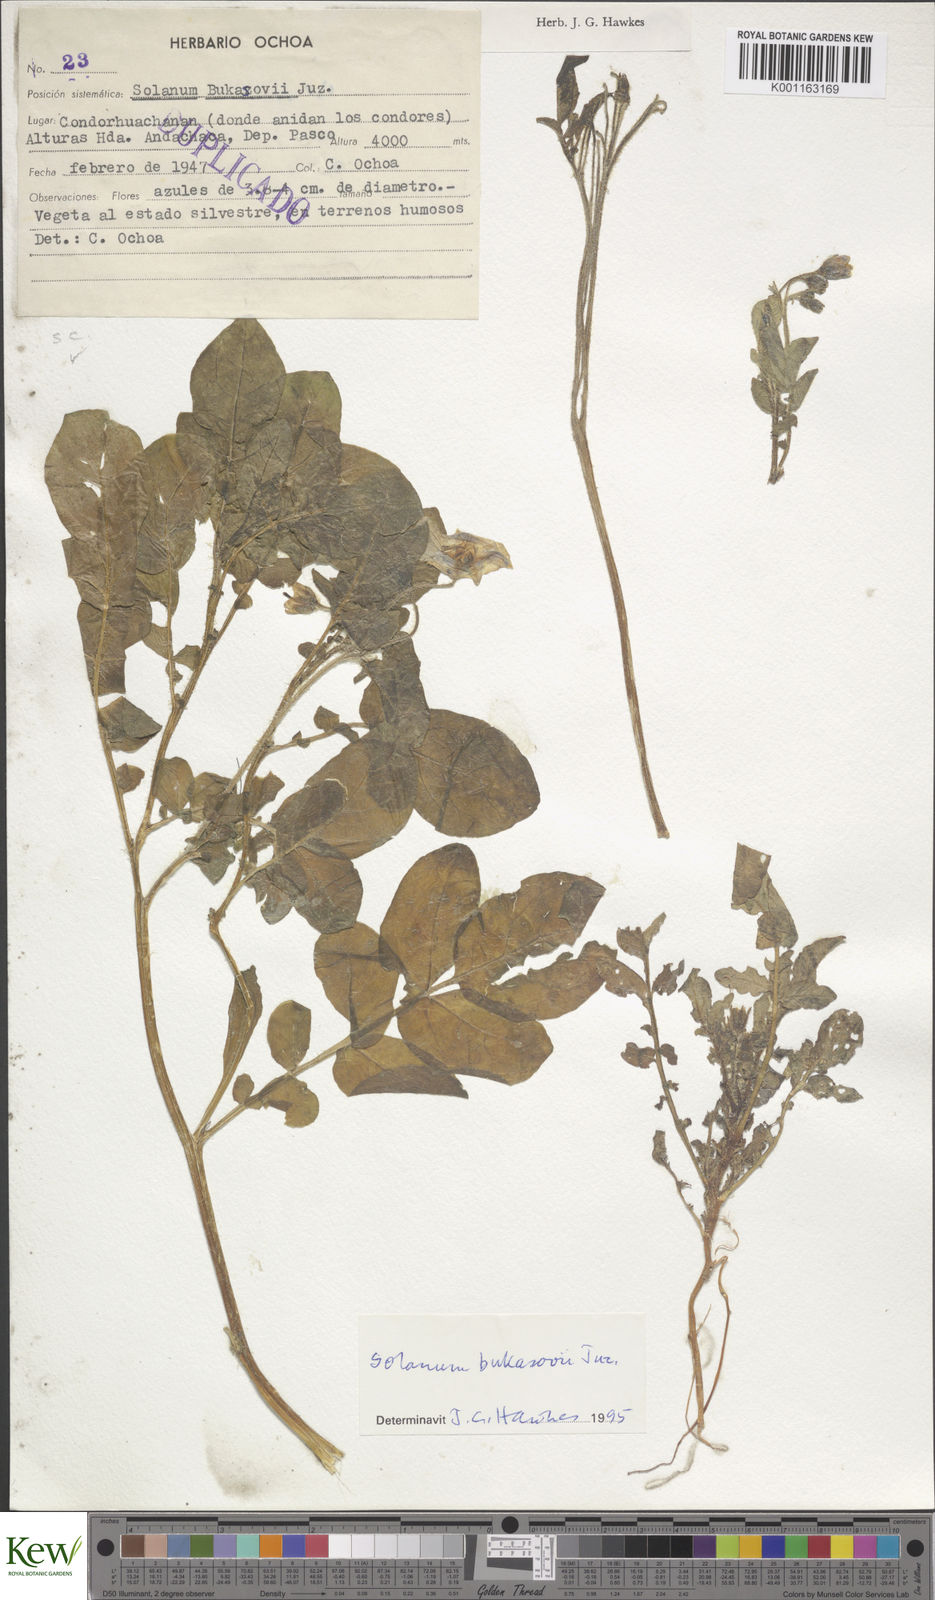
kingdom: Plantae
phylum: Tracheophyta
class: Magnoliopsida
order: Solanales
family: Solanaceae
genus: Solanum
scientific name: Solanum candolleanum
